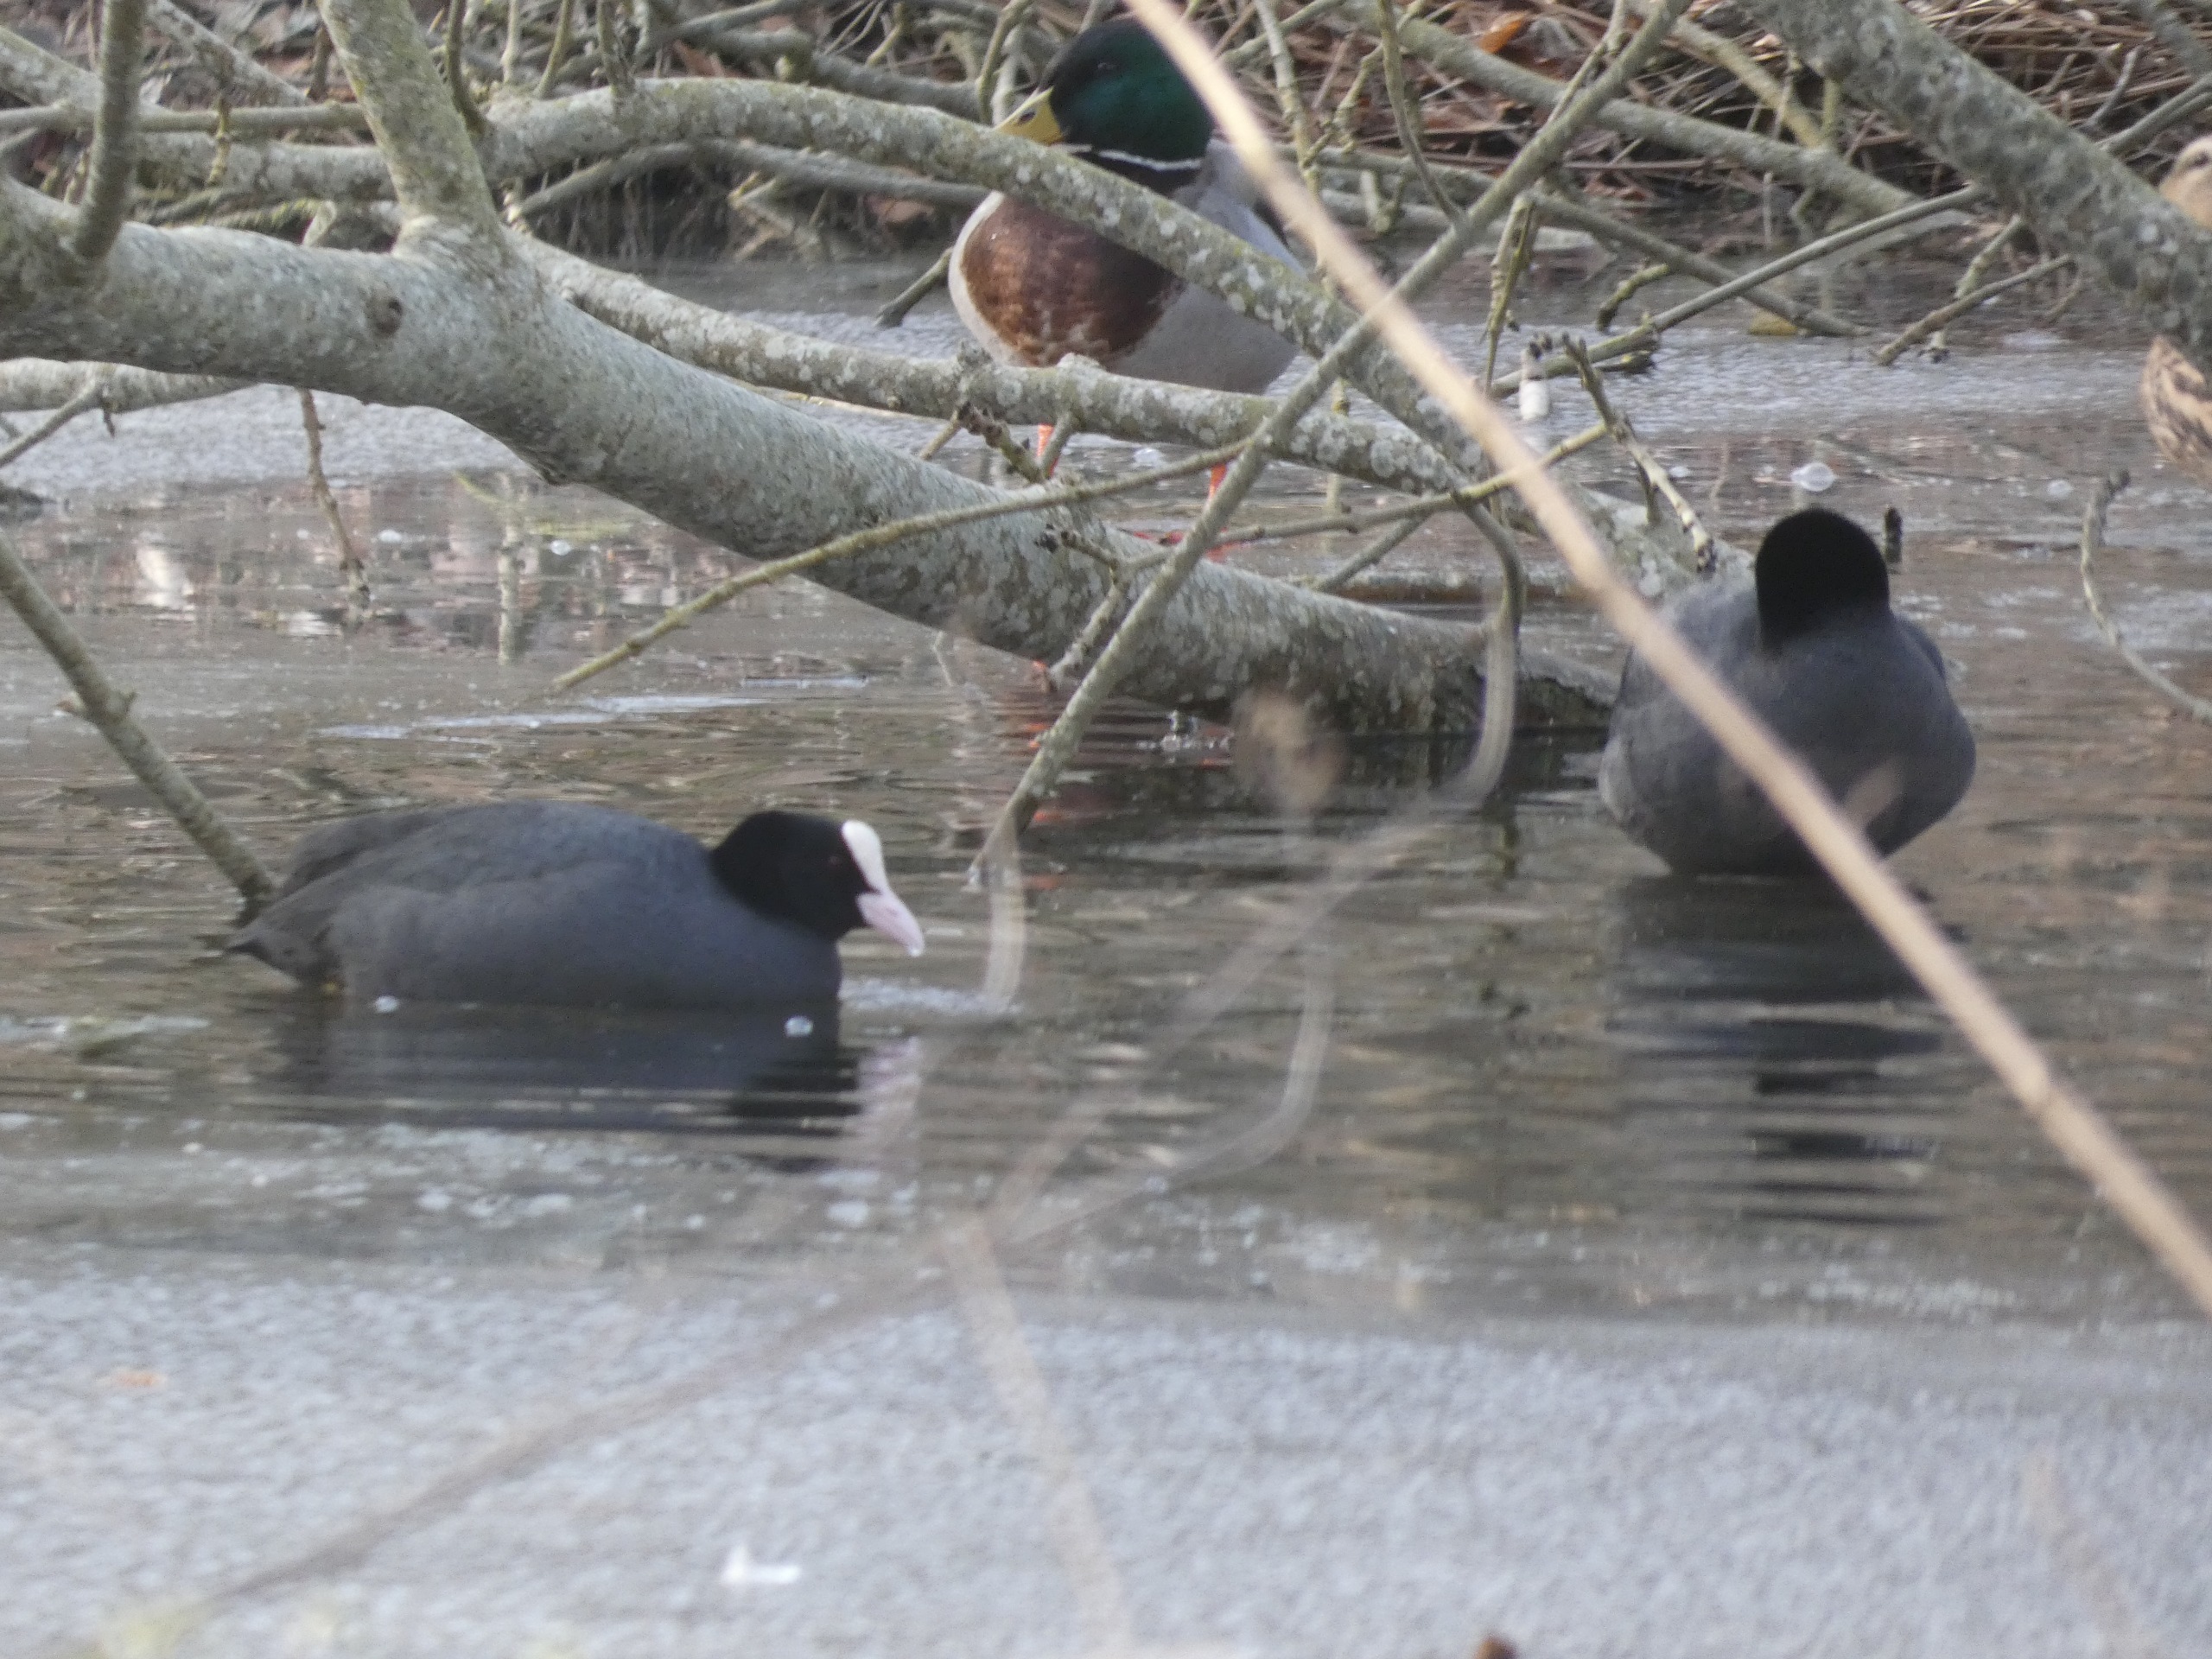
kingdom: Animalia
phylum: Chordata
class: Aves
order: Gruiformes
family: Rallidae
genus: Fulica
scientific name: Fulica atra
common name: Blishøne
